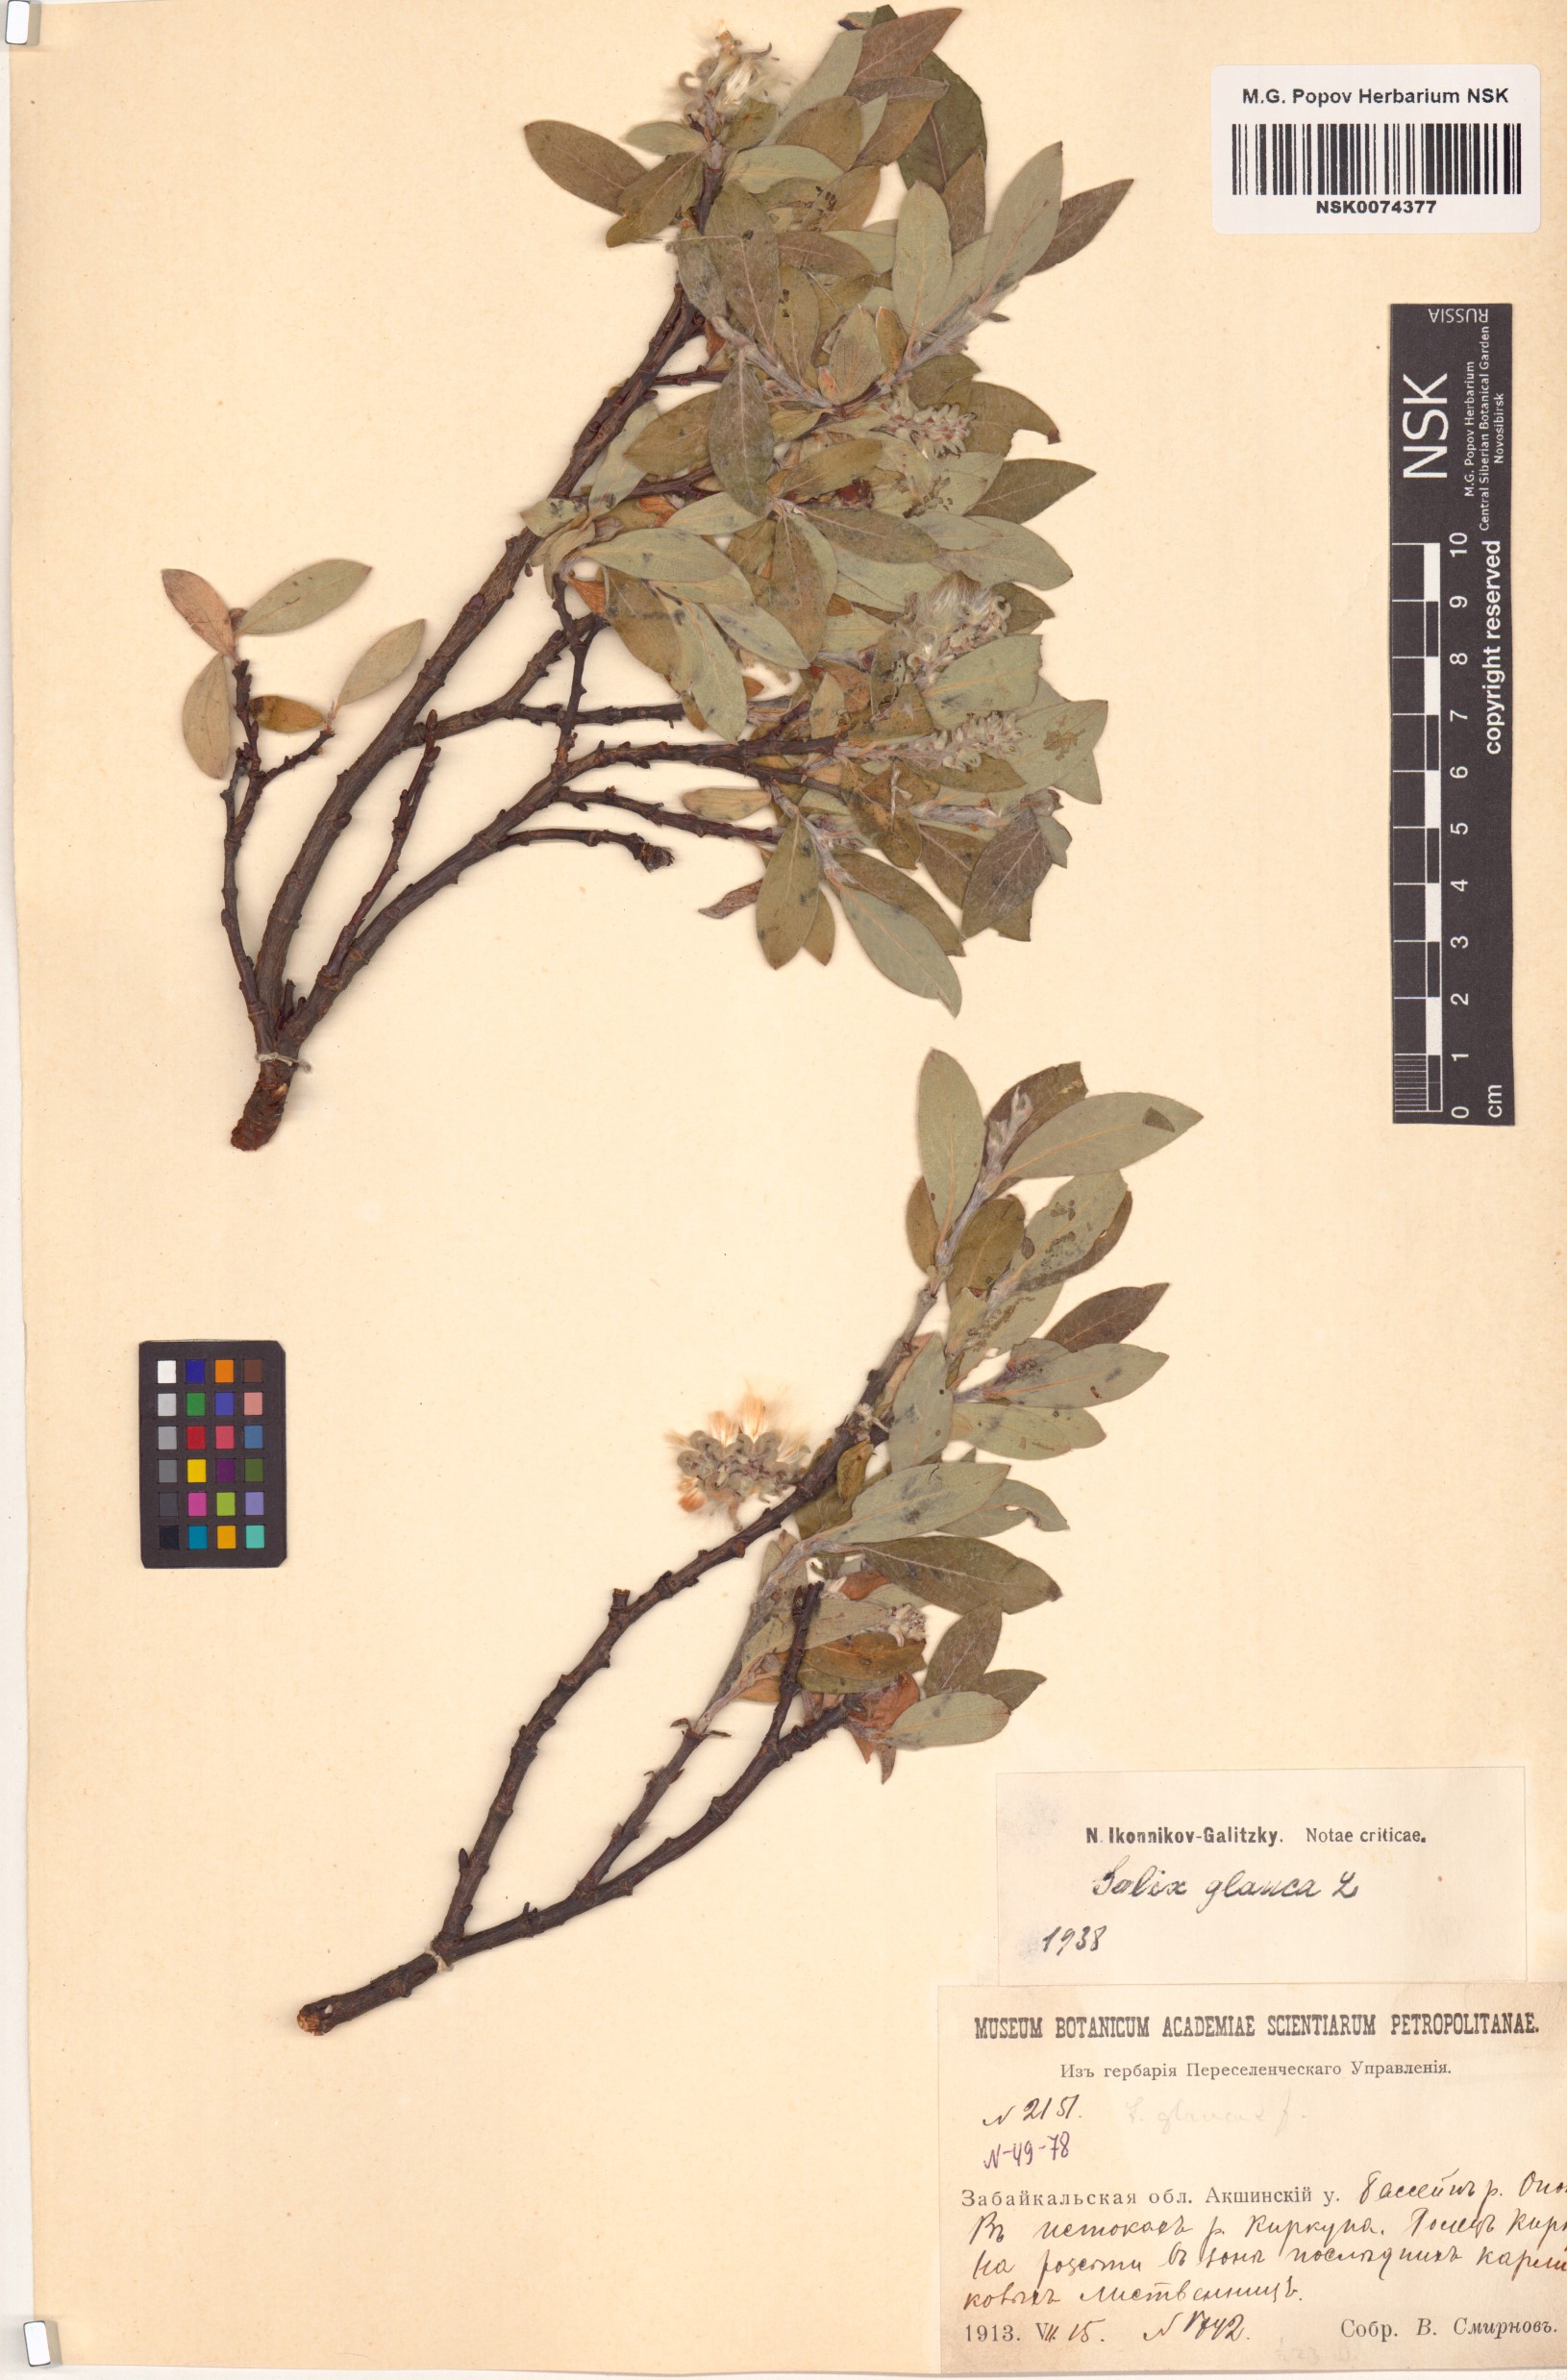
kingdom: Plantae
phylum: Tracheophyta
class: Magnoliopsida
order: Malpighiales
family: Salicaceae
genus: Salix
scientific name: Salix glauca
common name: Glaucous willow
